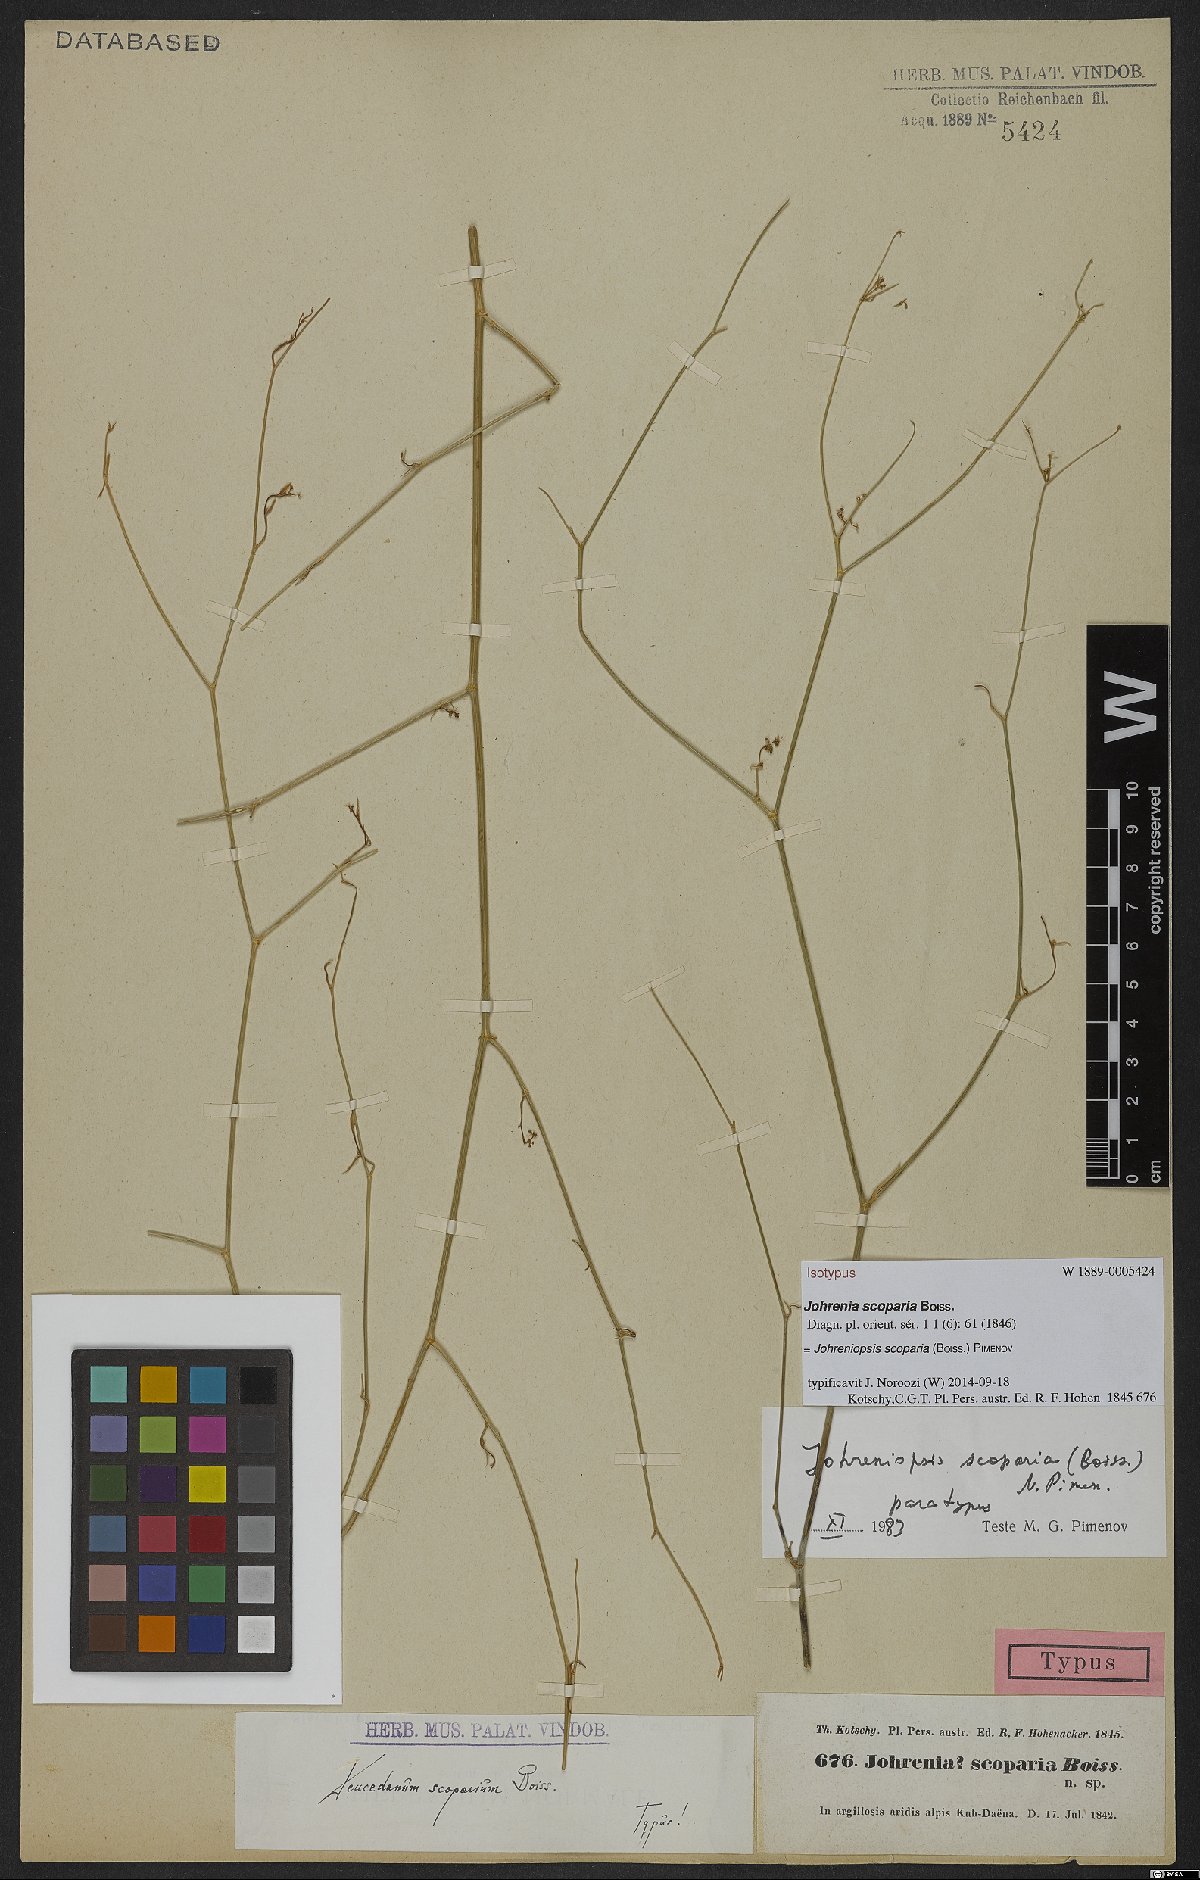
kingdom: Plantae
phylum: Tracheophyta
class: Magnoliopsida
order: Apiales
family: Apiaceae
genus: Dichoropetalum
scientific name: Dichoropetalum scoparium
